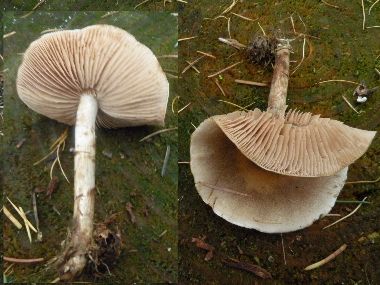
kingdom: Fungi
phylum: Basidiomycota
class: Agaricomycetes
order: Agaricales
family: Hymenogastraceae
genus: Hebeloma
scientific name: Hebeloma mesophaeum
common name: lerbrun tåreblad
